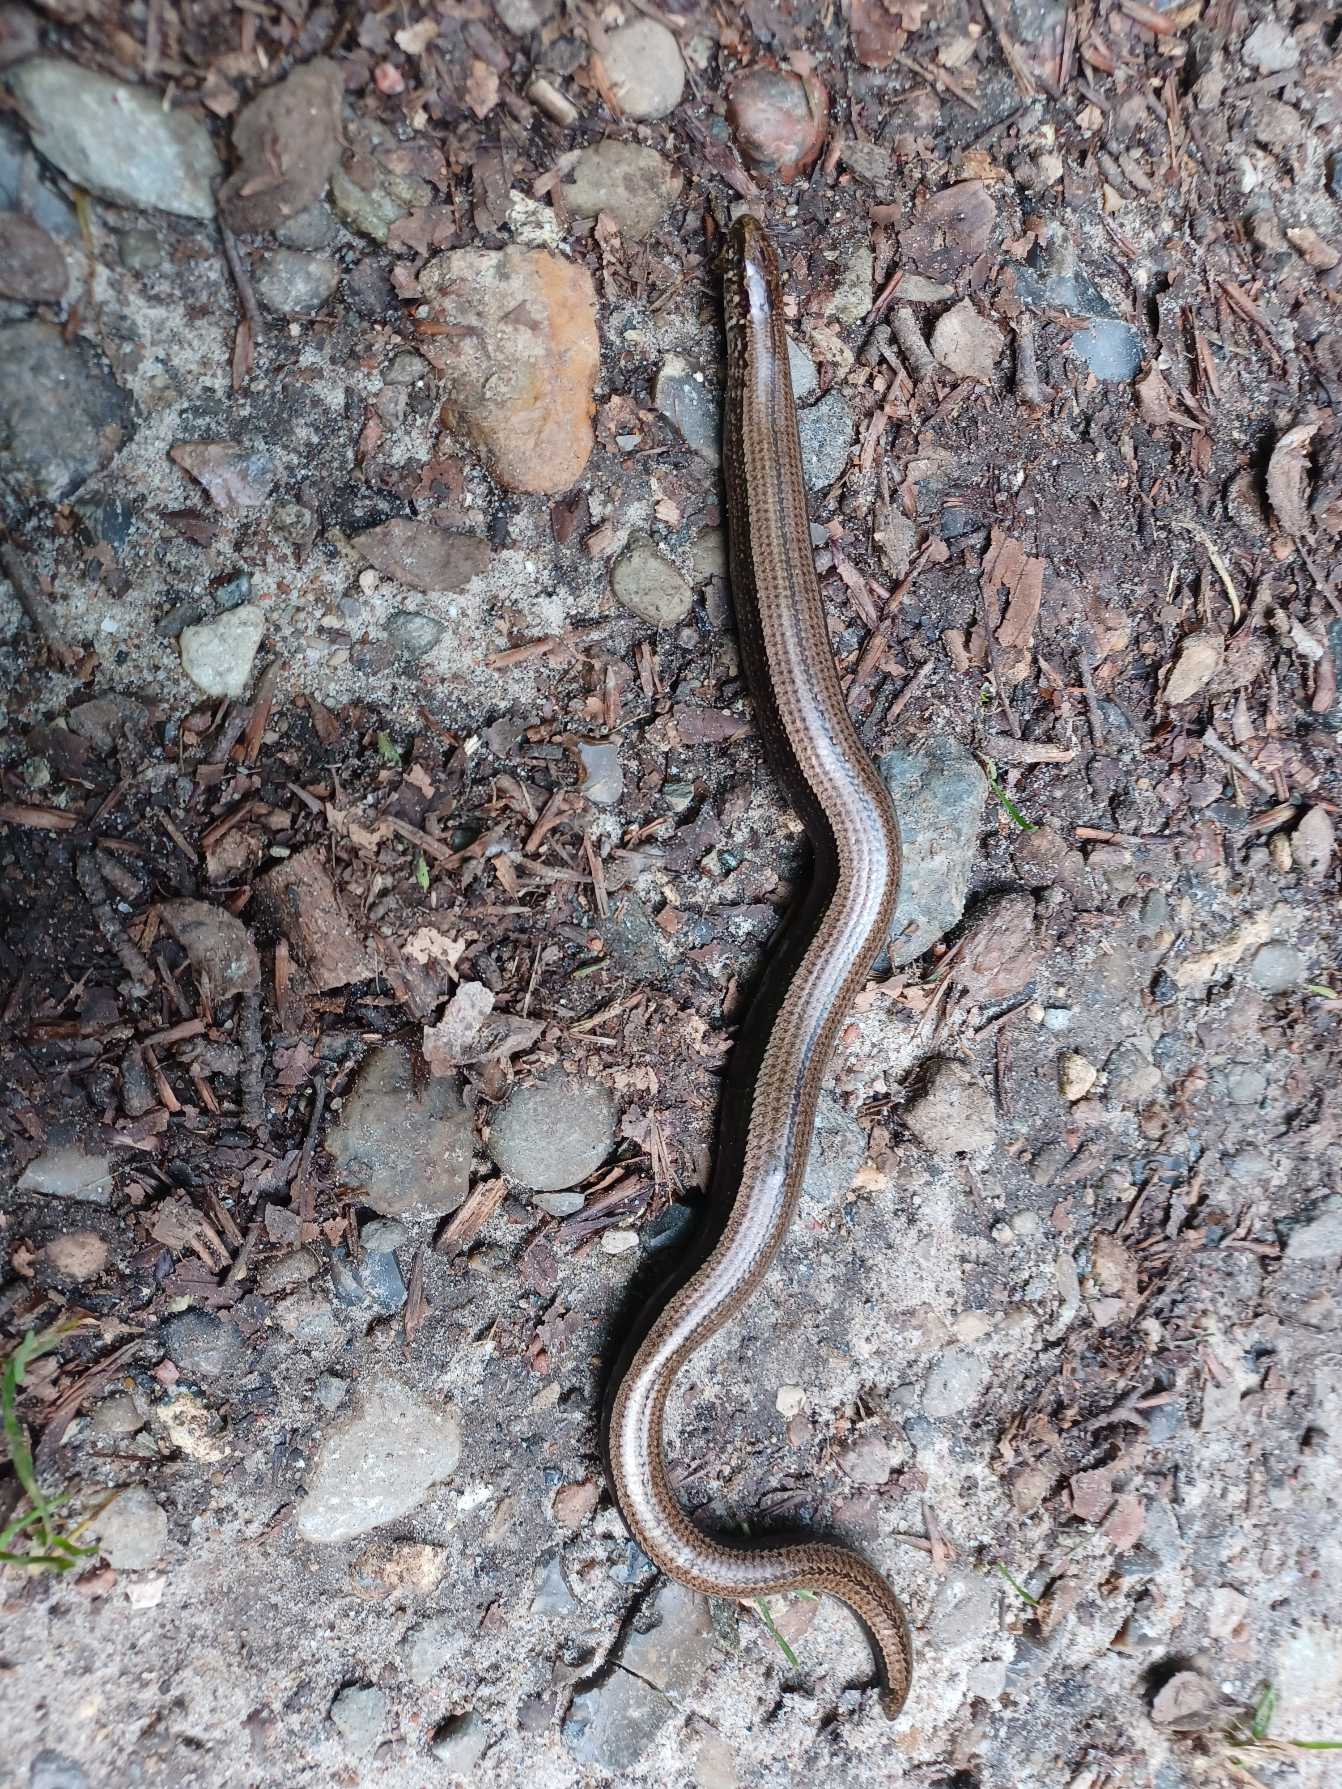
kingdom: Animalia
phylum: Chordata
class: Squamata
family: Anguidae
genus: Anguis
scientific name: Anguis fragilis
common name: Stålorm
